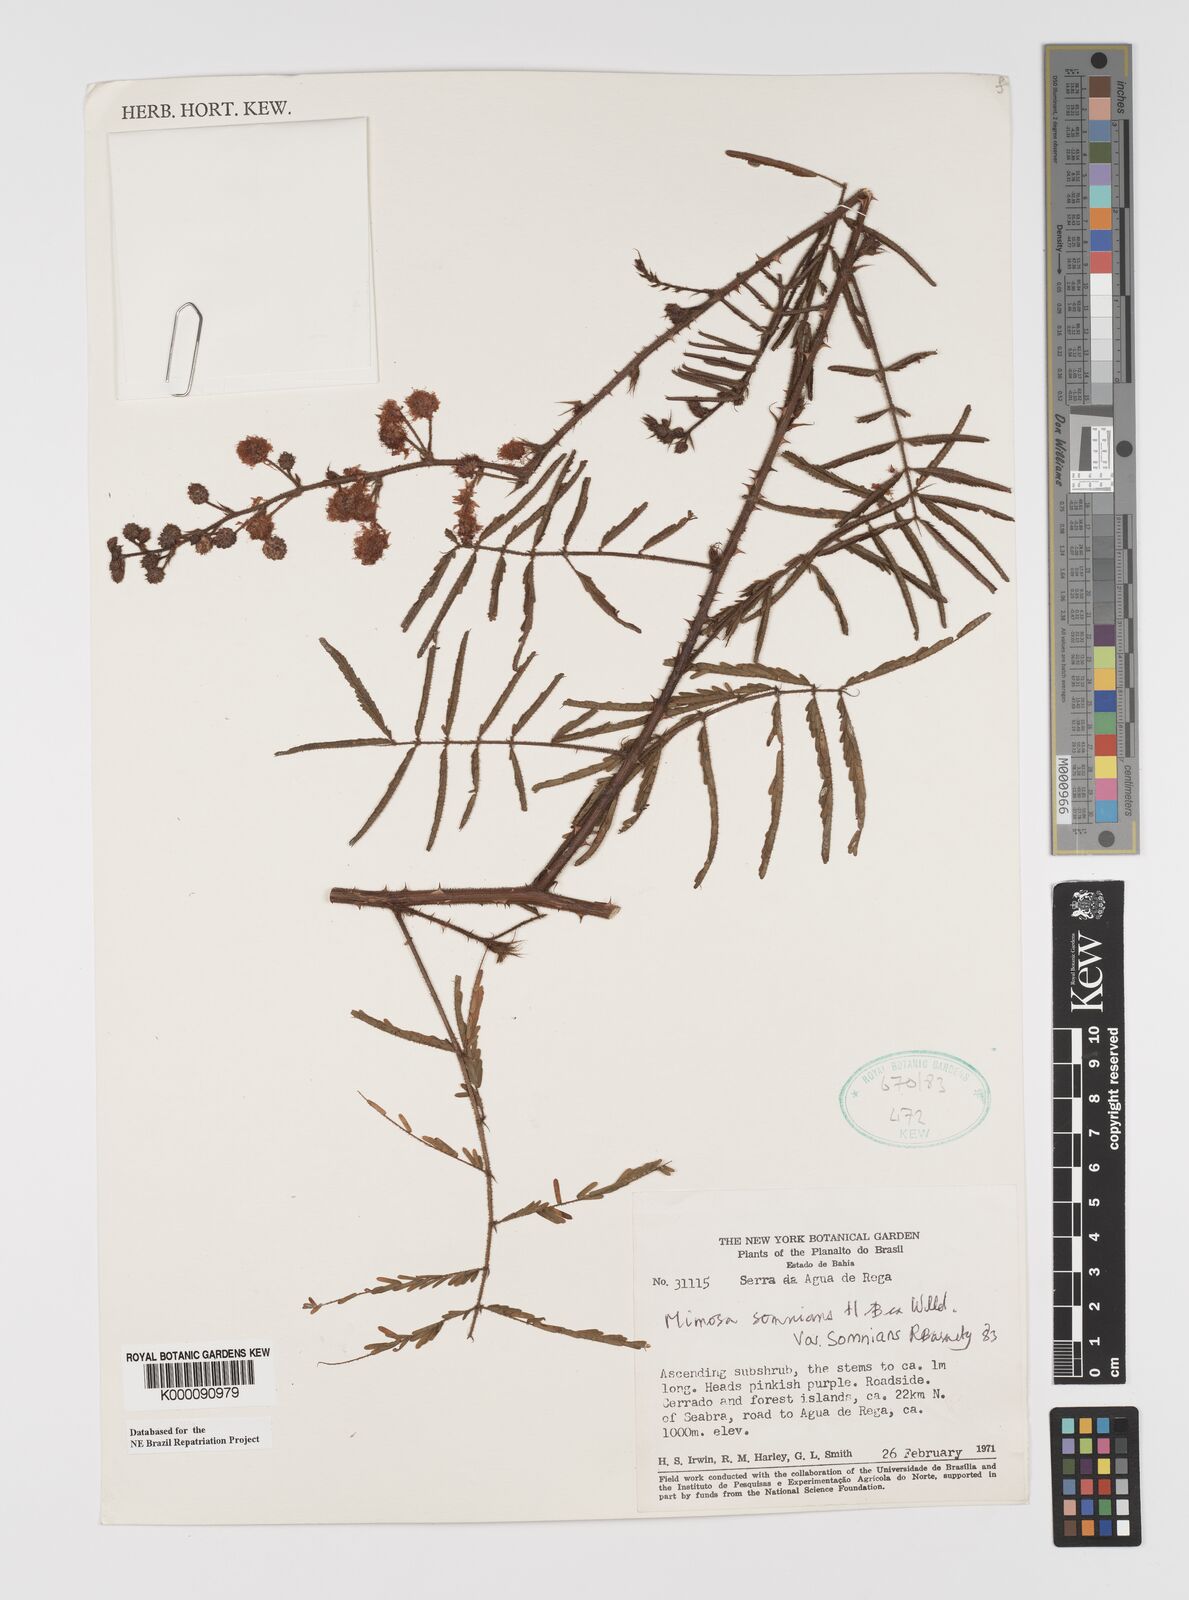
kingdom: Plantae
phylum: Tracheophyta
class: Magnoliopsida
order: Fabales
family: Fabaceae
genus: Mimosa
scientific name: Mimosa somnians
